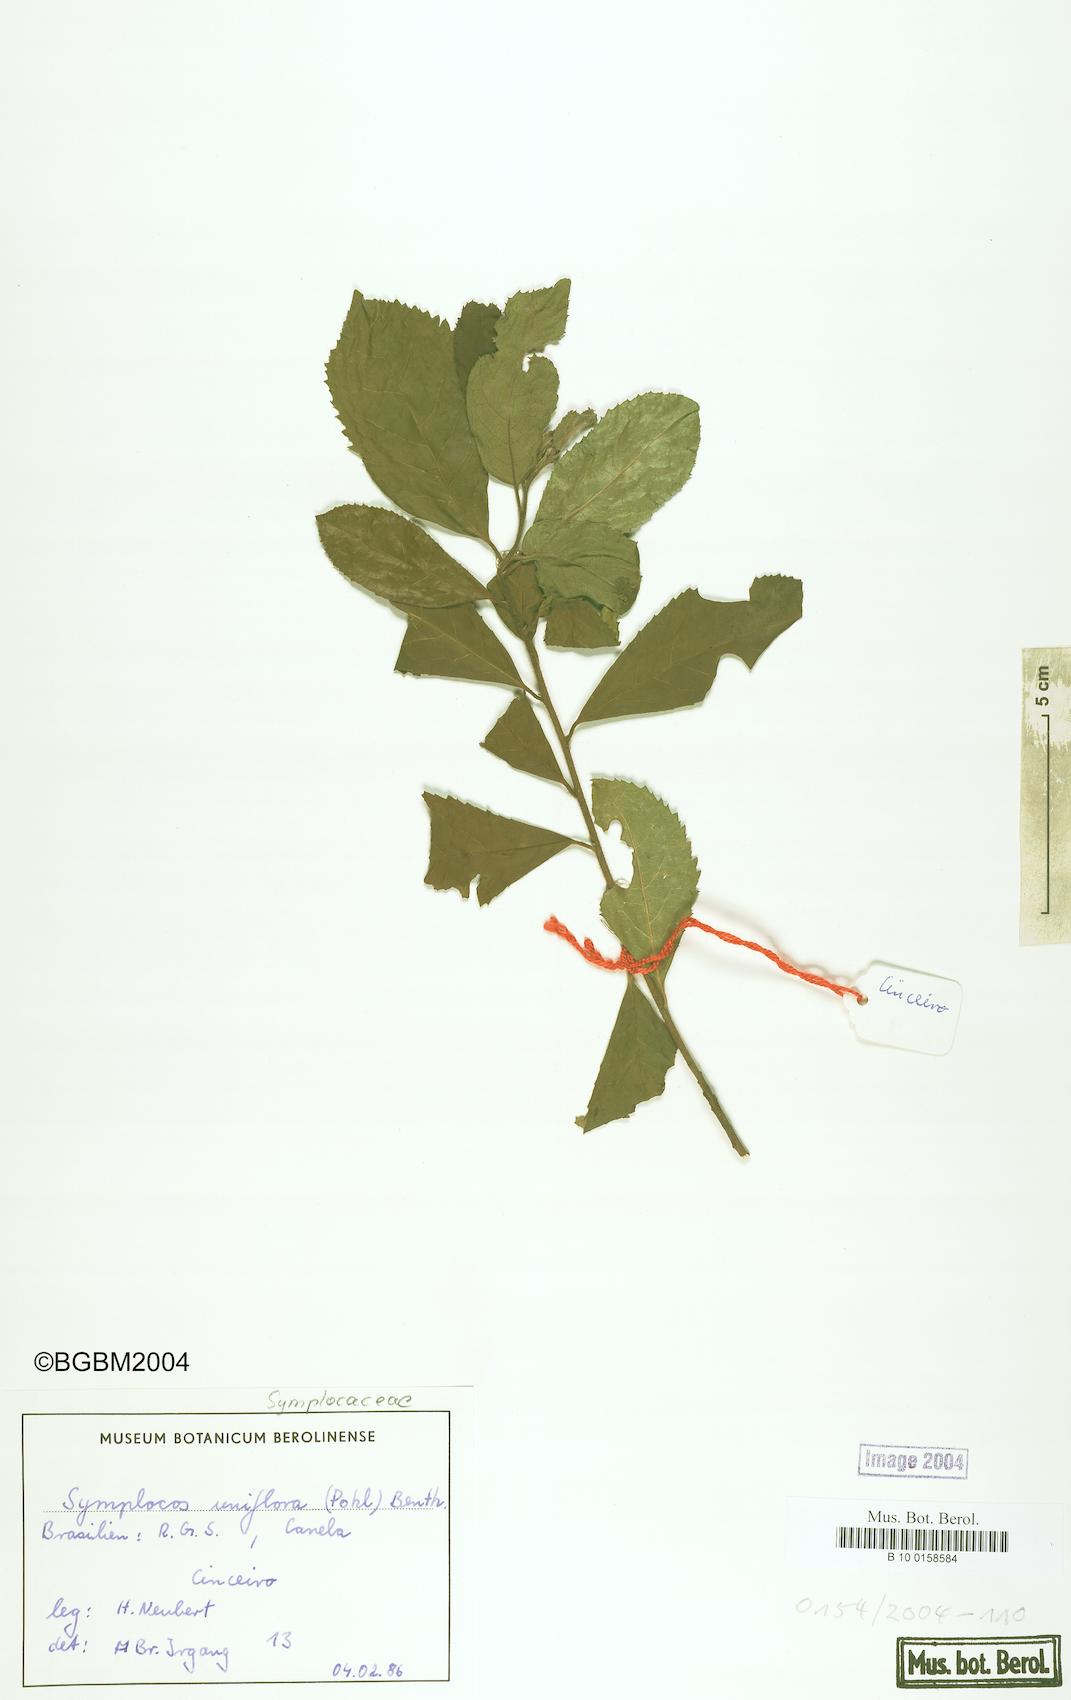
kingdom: Plantae
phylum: Tracheophyta
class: Magnoliopsida
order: Ericales
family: Symplocaceae
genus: Symplocos
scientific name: Symplocos uniflora
